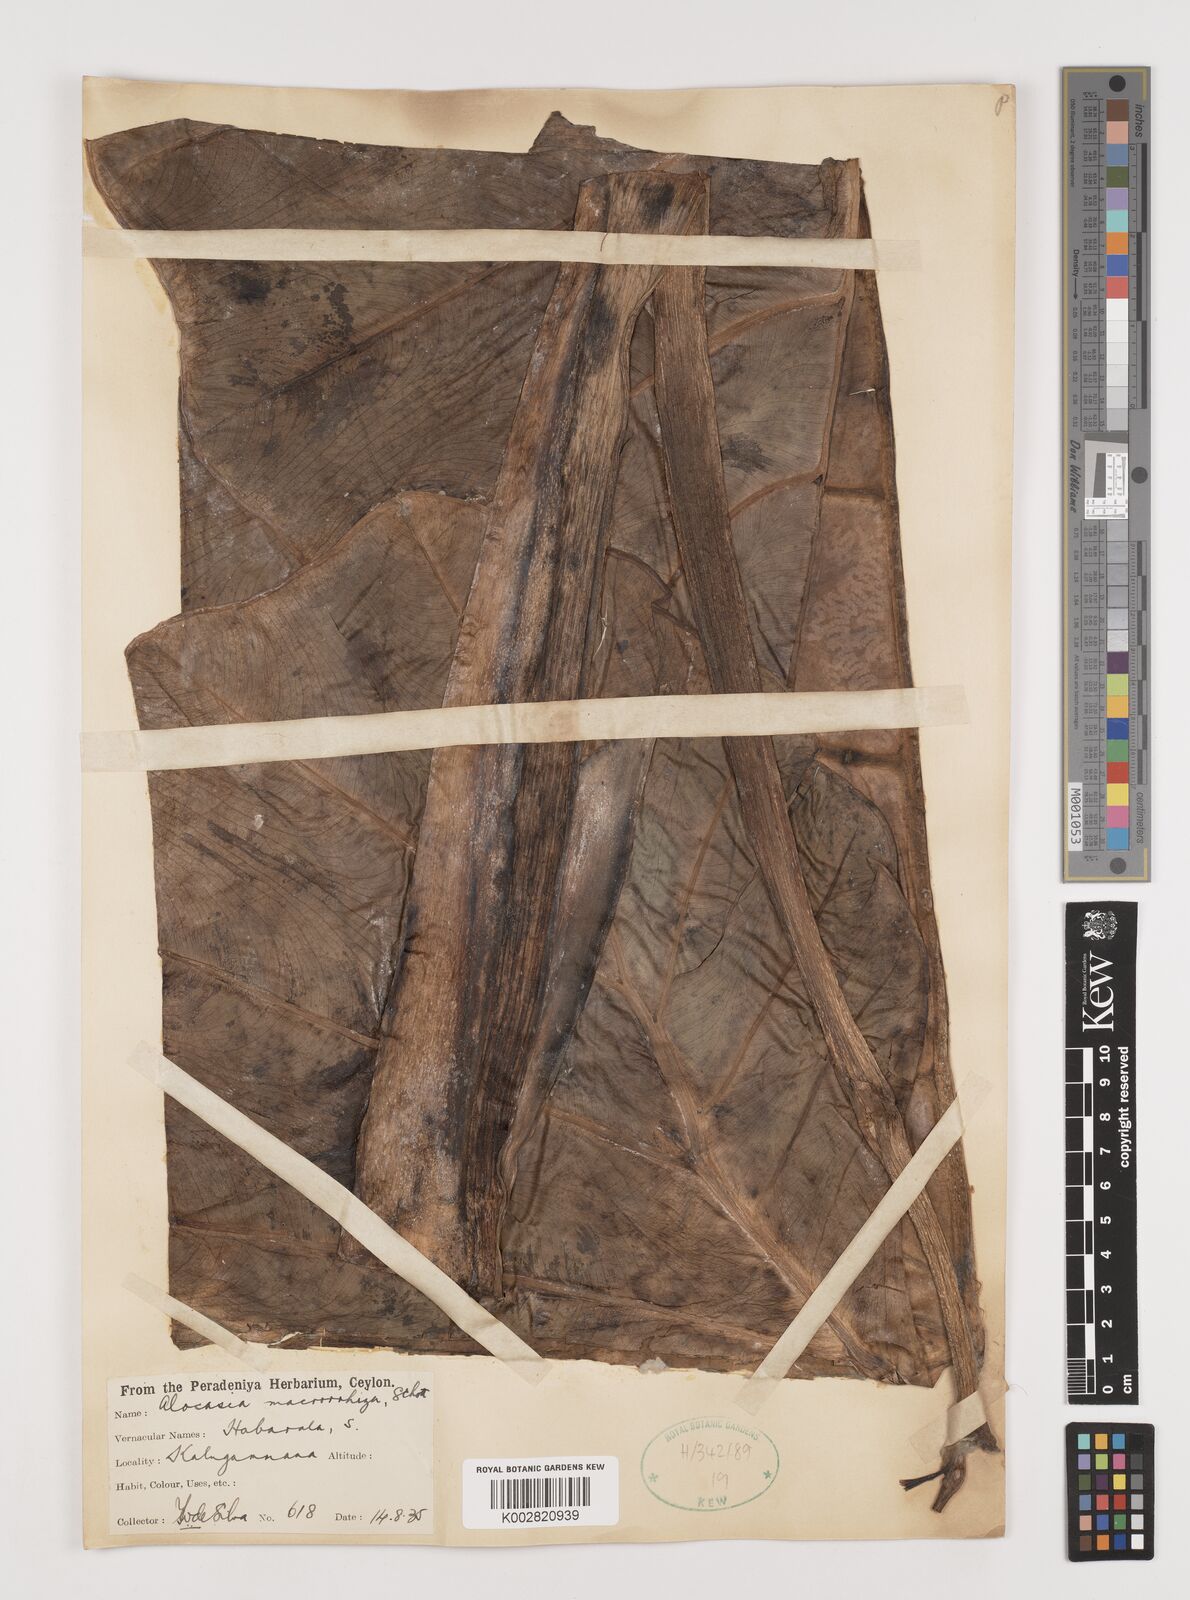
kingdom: Plantae
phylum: Tracheophyta
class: Liliopsida
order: Alismatales
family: Araceae
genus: Alocasia
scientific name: Alocasia macrorrhizos
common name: Giant taro
